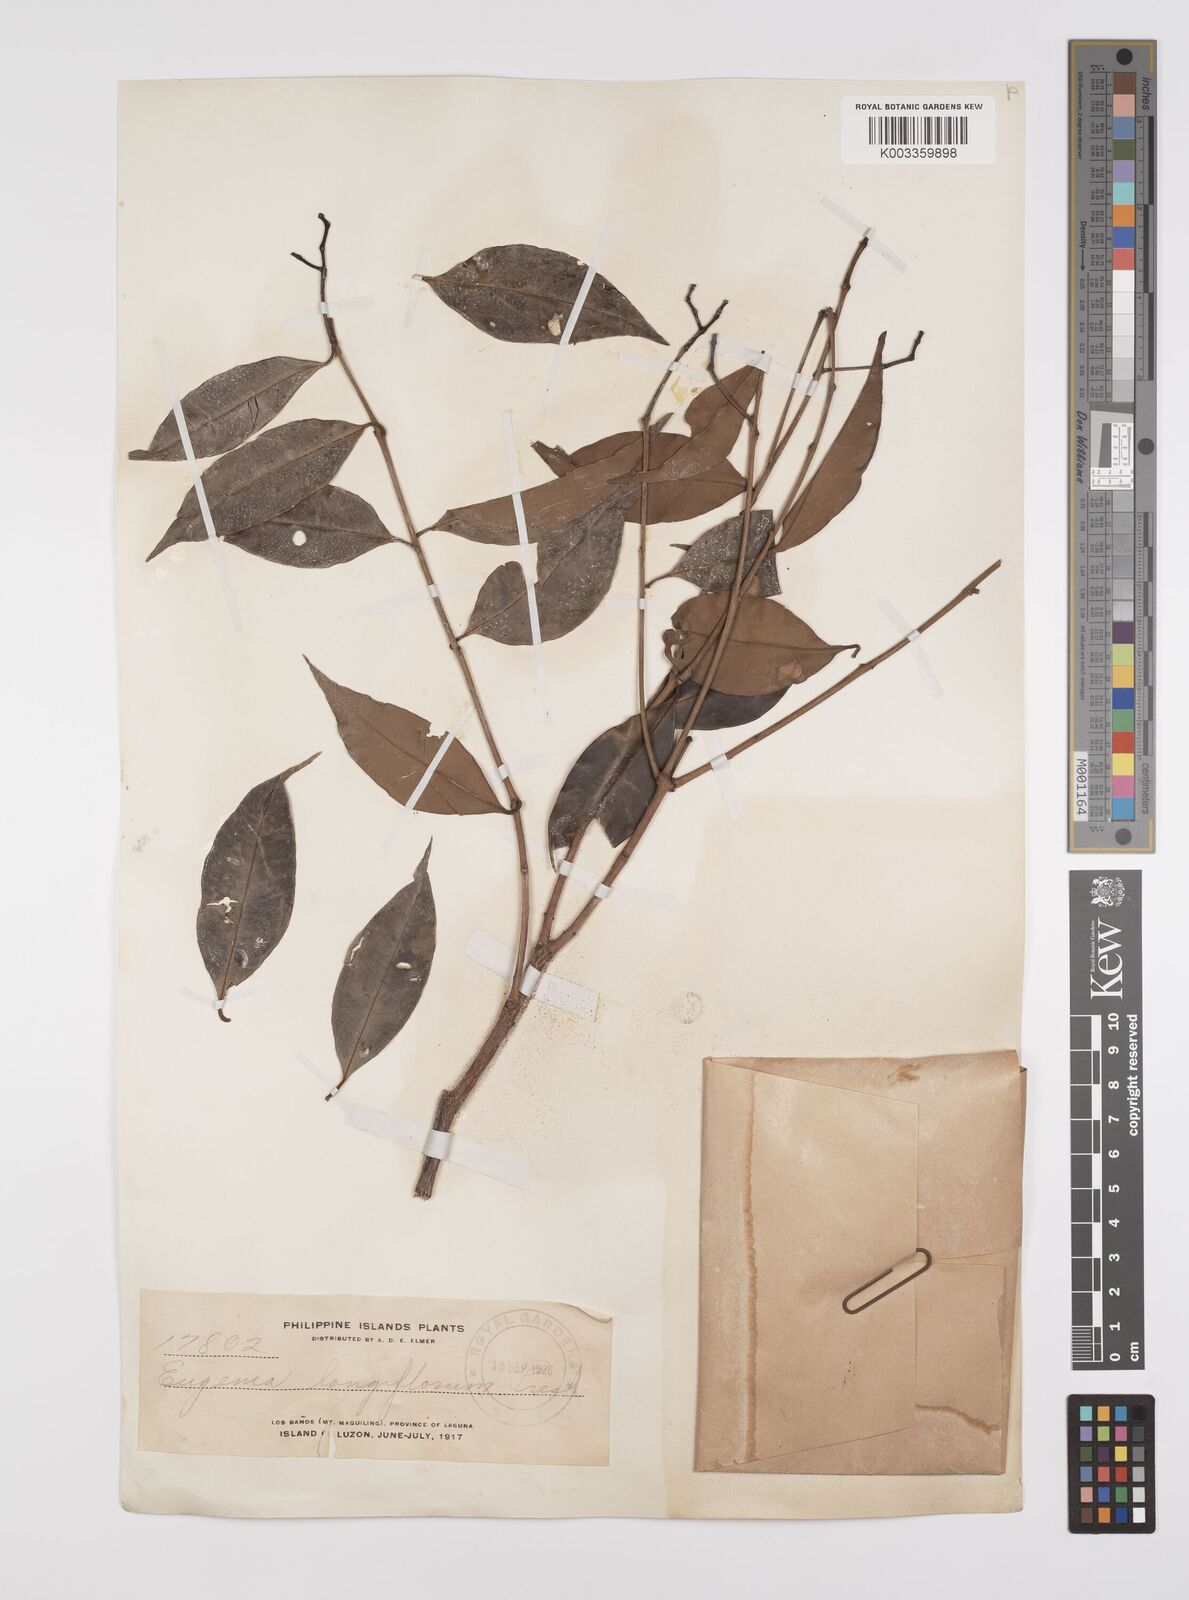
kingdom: Plantae
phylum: Tracheophyta
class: Magnoliopsida
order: Myrtales
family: Myrtaceae
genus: Syzygium
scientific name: Syzygium acuminatissimum
